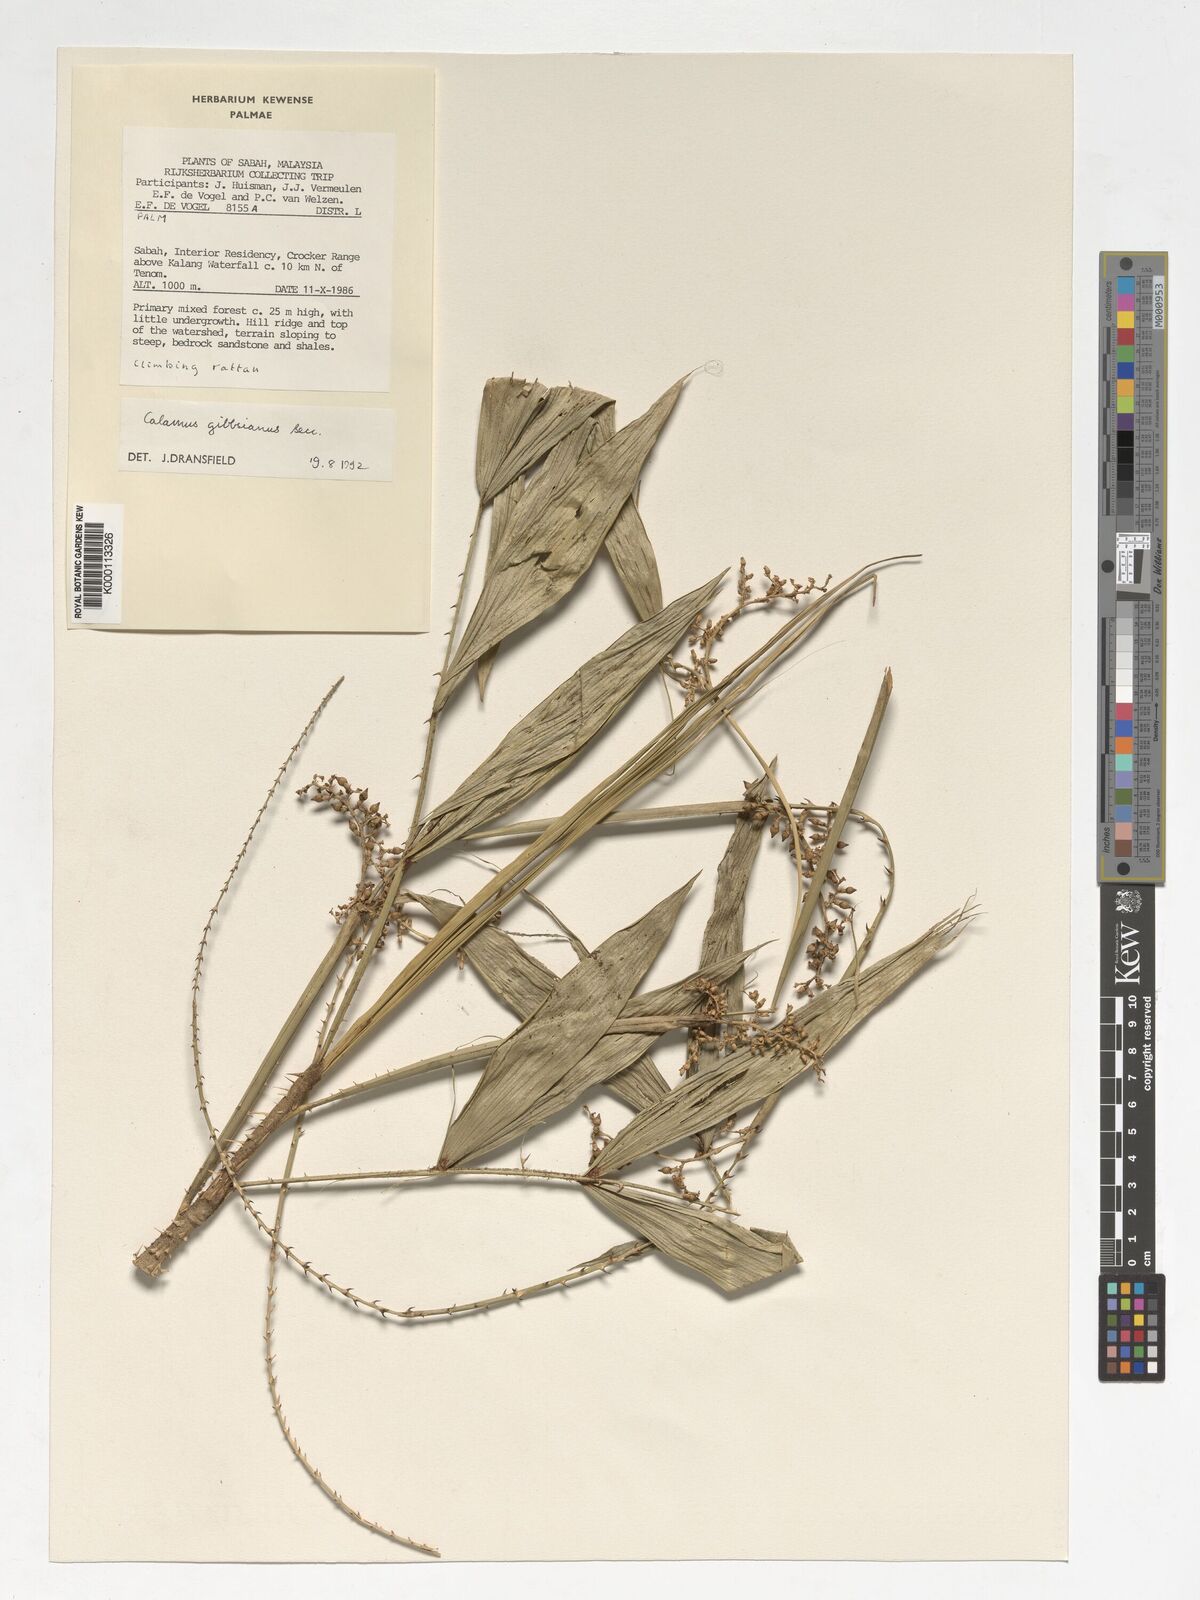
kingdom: Plantae
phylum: Tracheophyta
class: Liliopsida
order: Arecales
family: Arecaceae
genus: Calamus
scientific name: Calamus gibbsianus
